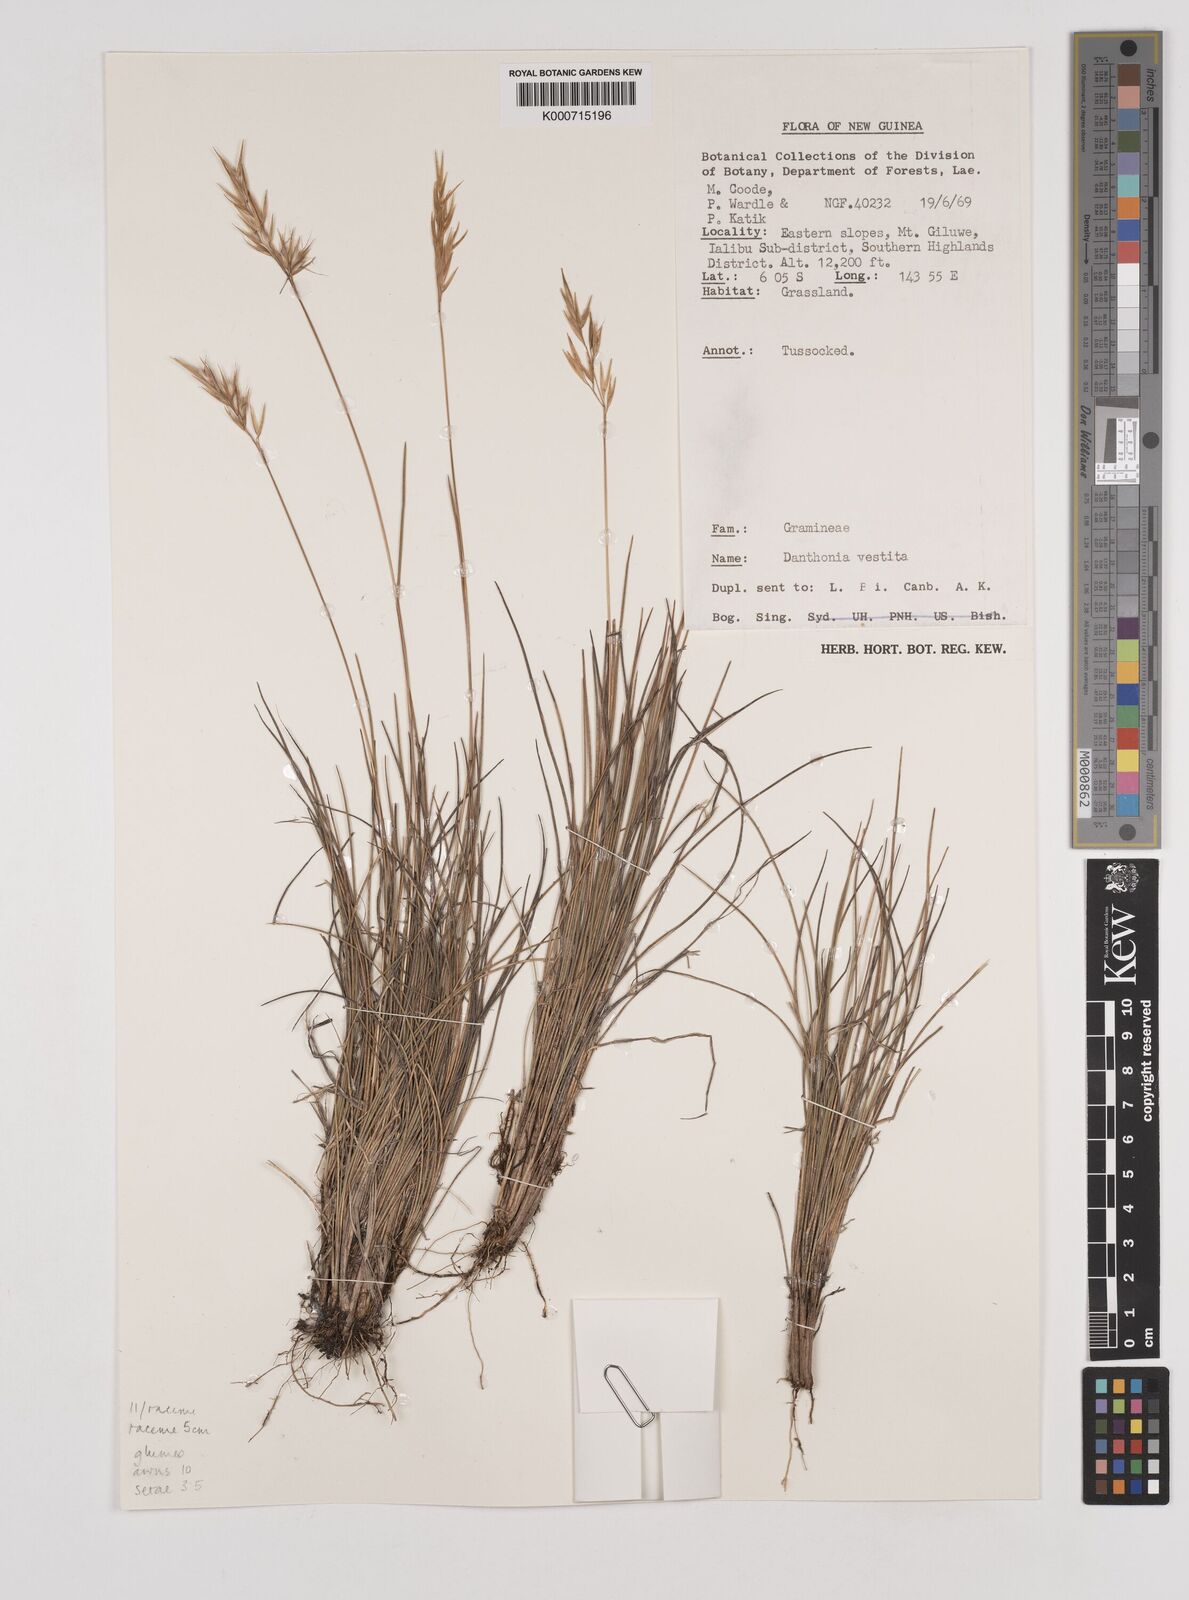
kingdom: Plantae
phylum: Tracheophyta
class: Liliopsida
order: Poales
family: Poaceae
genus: Rytidosperma
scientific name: Rytidosperma vestitum
